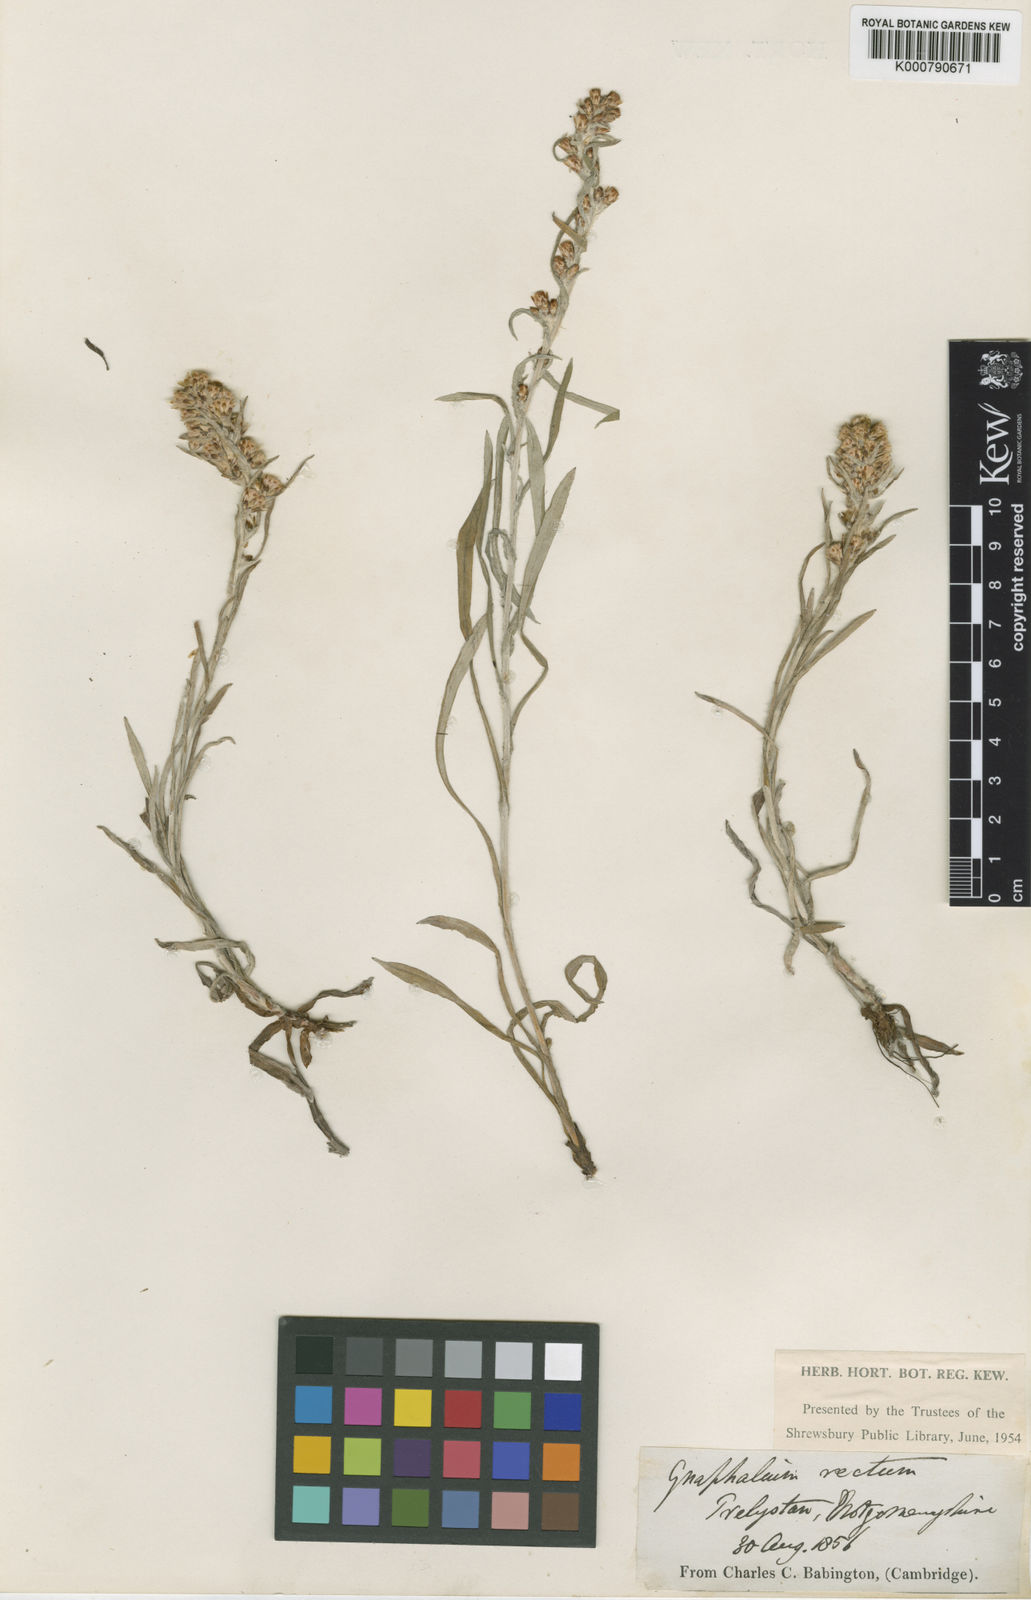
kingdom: Plantae
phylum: Tracheophyta
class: Magnoliopsida
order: Asterales
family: Asteraceae
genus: Omalotheca
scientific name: Omalotheca sylvatica
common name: Heath cudweed
